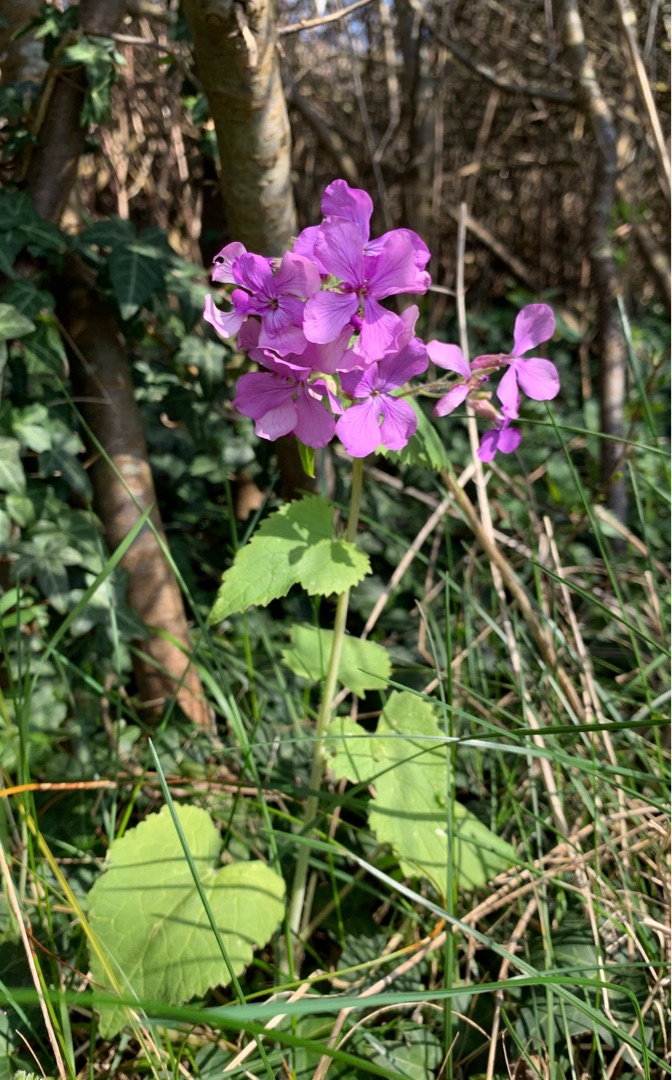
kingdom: Plantae
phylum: Tracheophyta
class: Magnoliopsida
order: Brassicales
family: Brassicaceae
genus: Lunaria
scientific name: Lunaria annua
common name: Judaspenge
